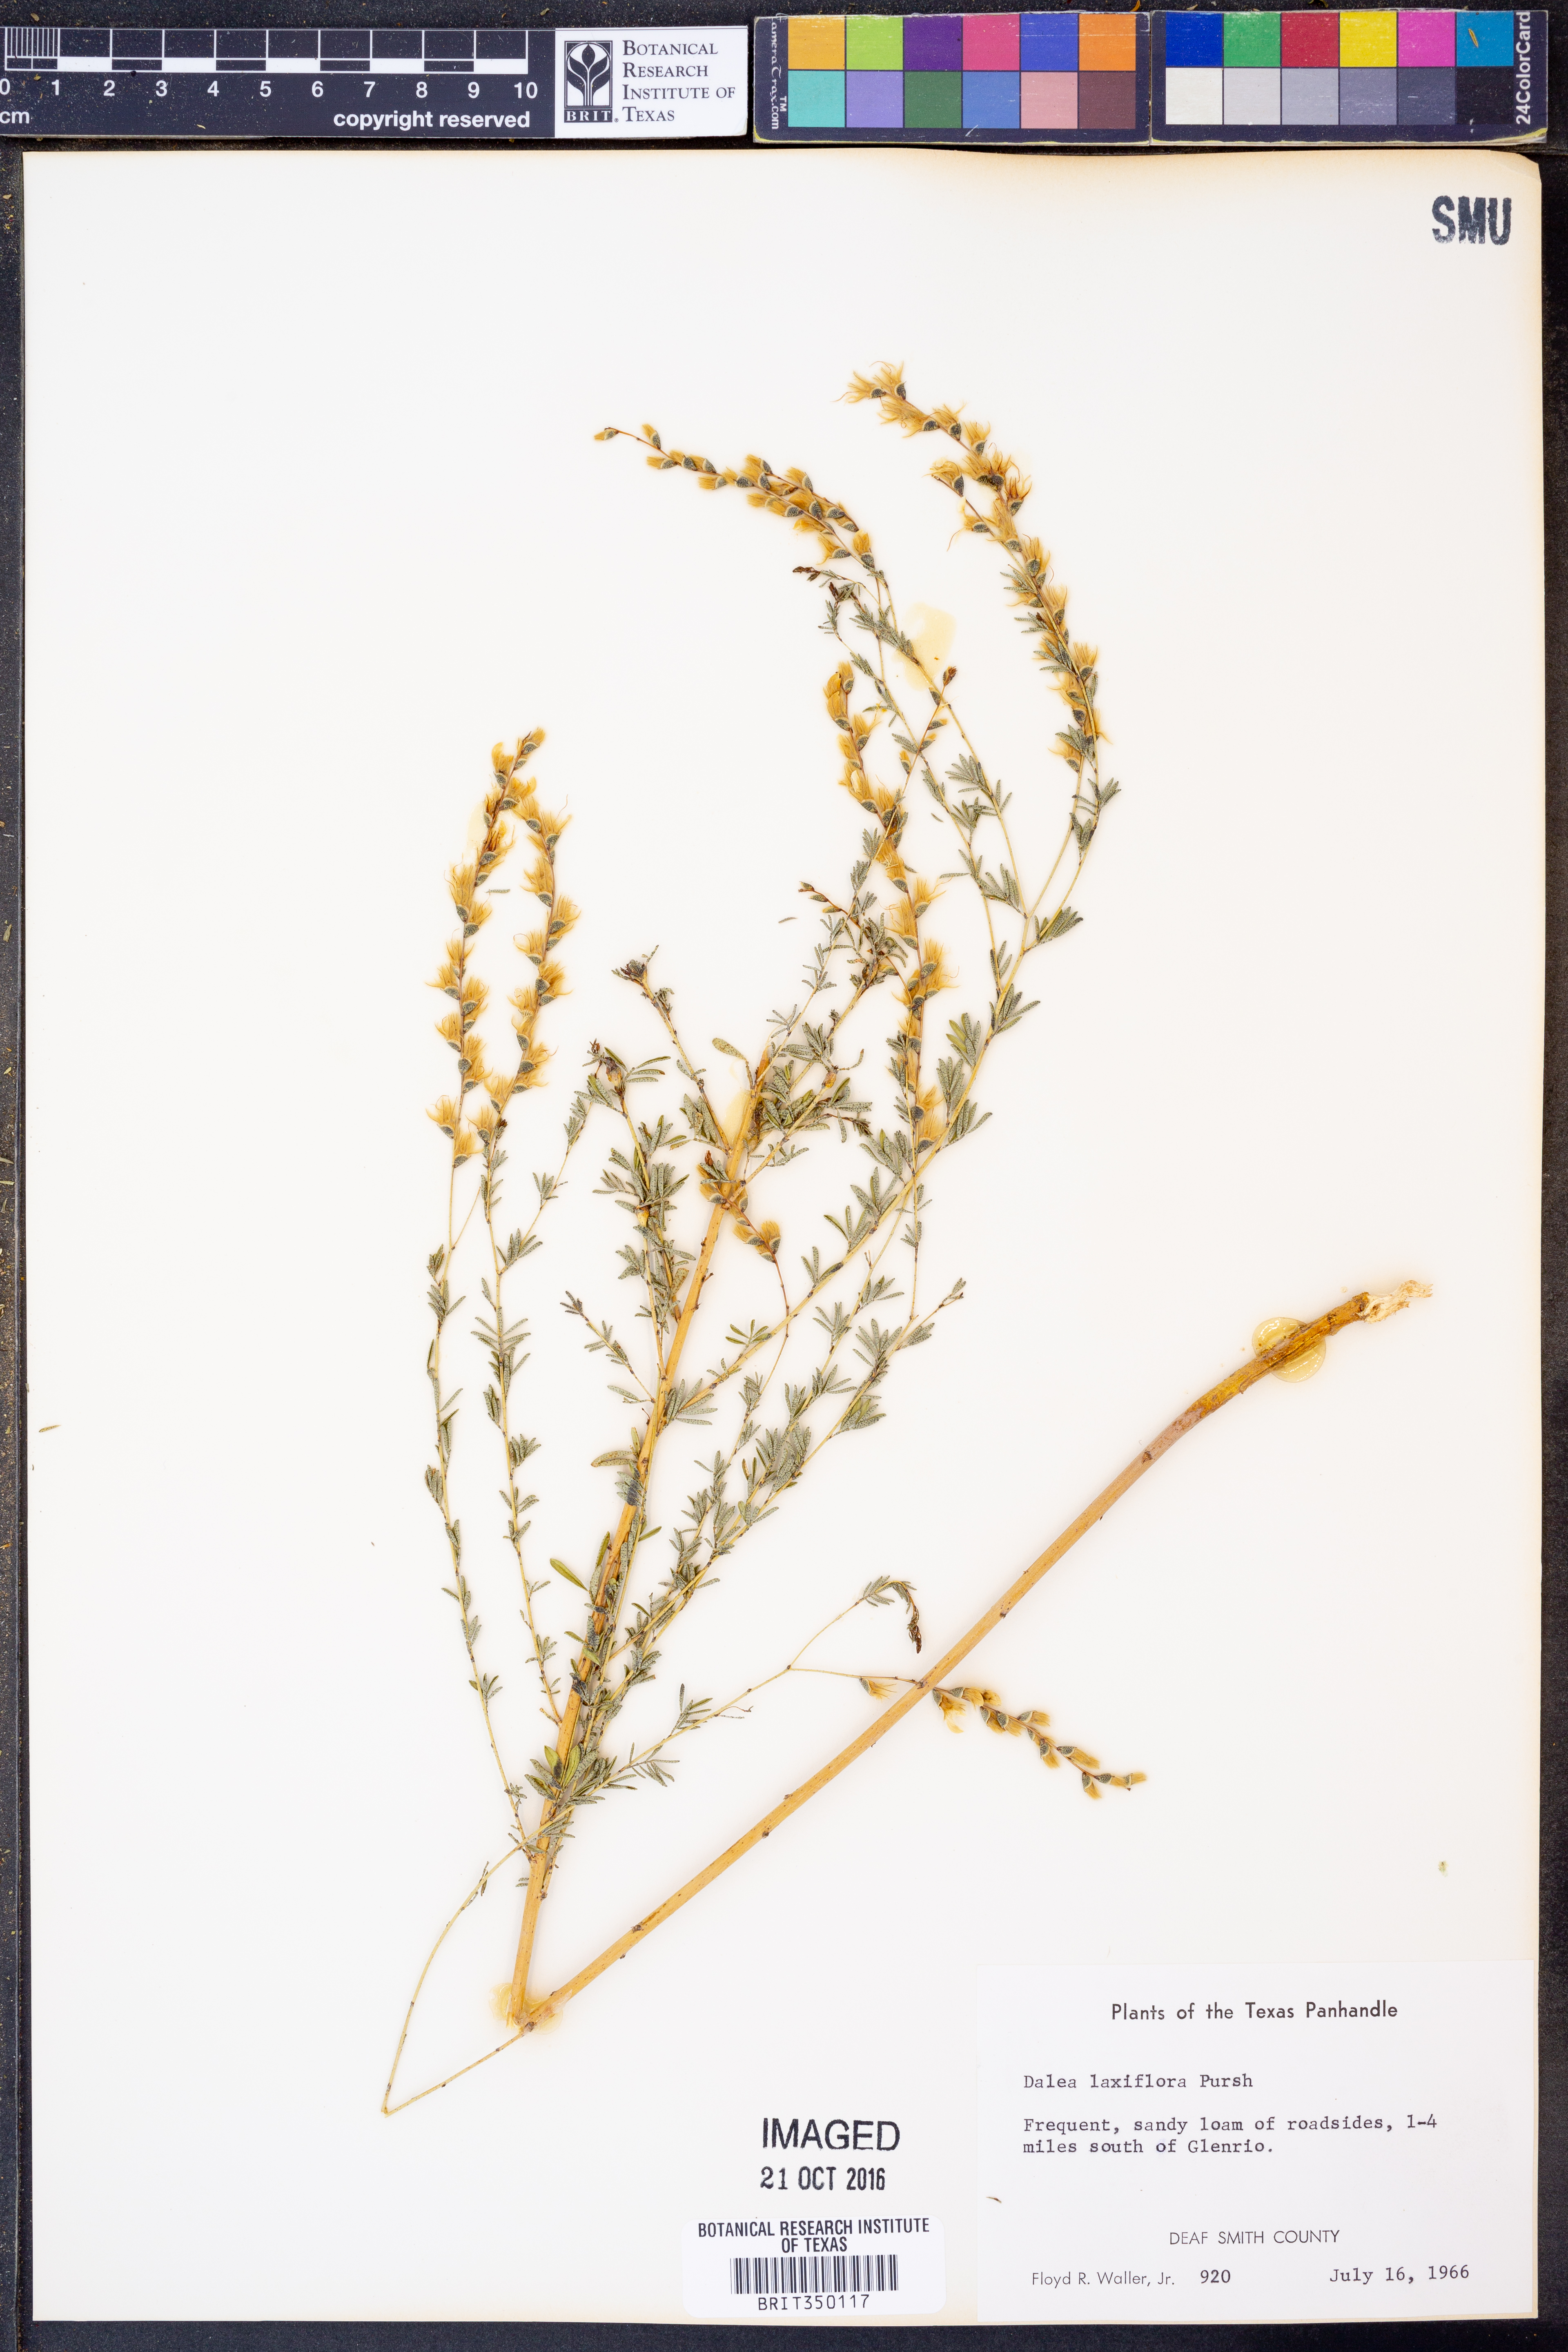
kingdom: Plantae
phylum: Tracheophyta
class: Magnoliopsida
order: Fabales
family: Fabaceae
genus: Dalea
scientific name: Dalea hegewischiana
